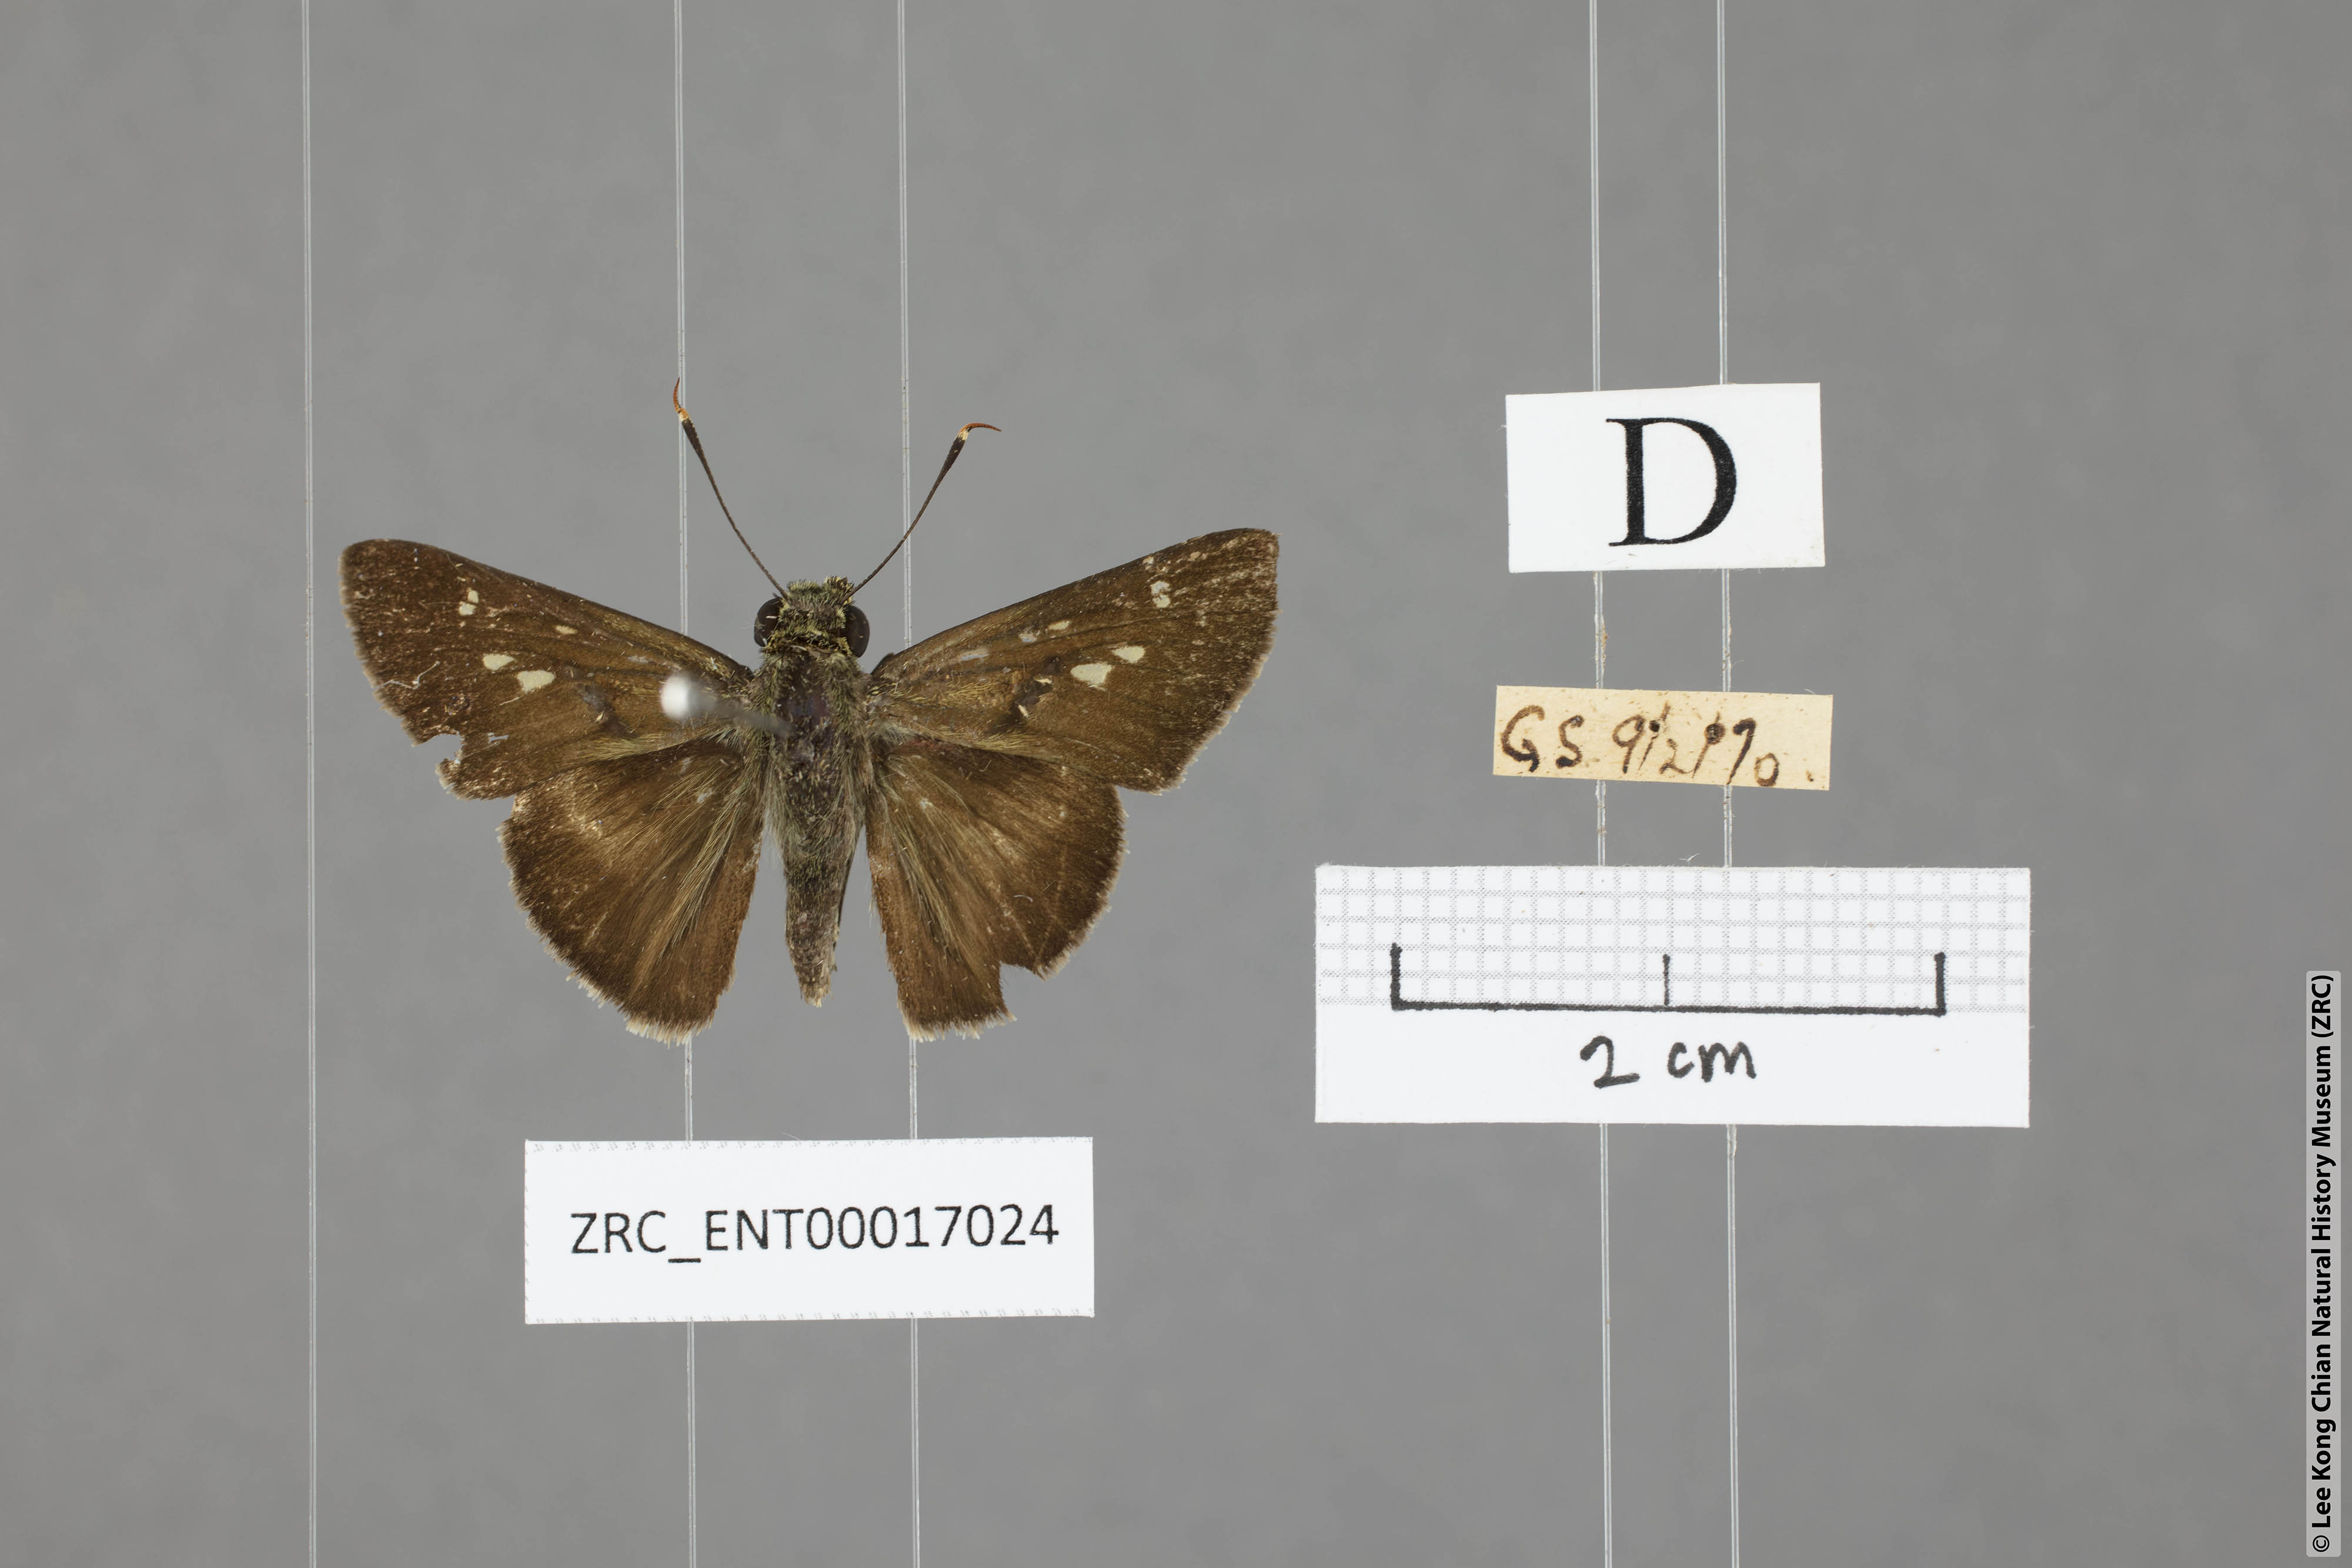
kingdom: Animalia
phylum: Arthropoda
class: Insecta
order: Lepidoptera
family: Hesperiidae
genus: Halpe
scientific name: Halpe
